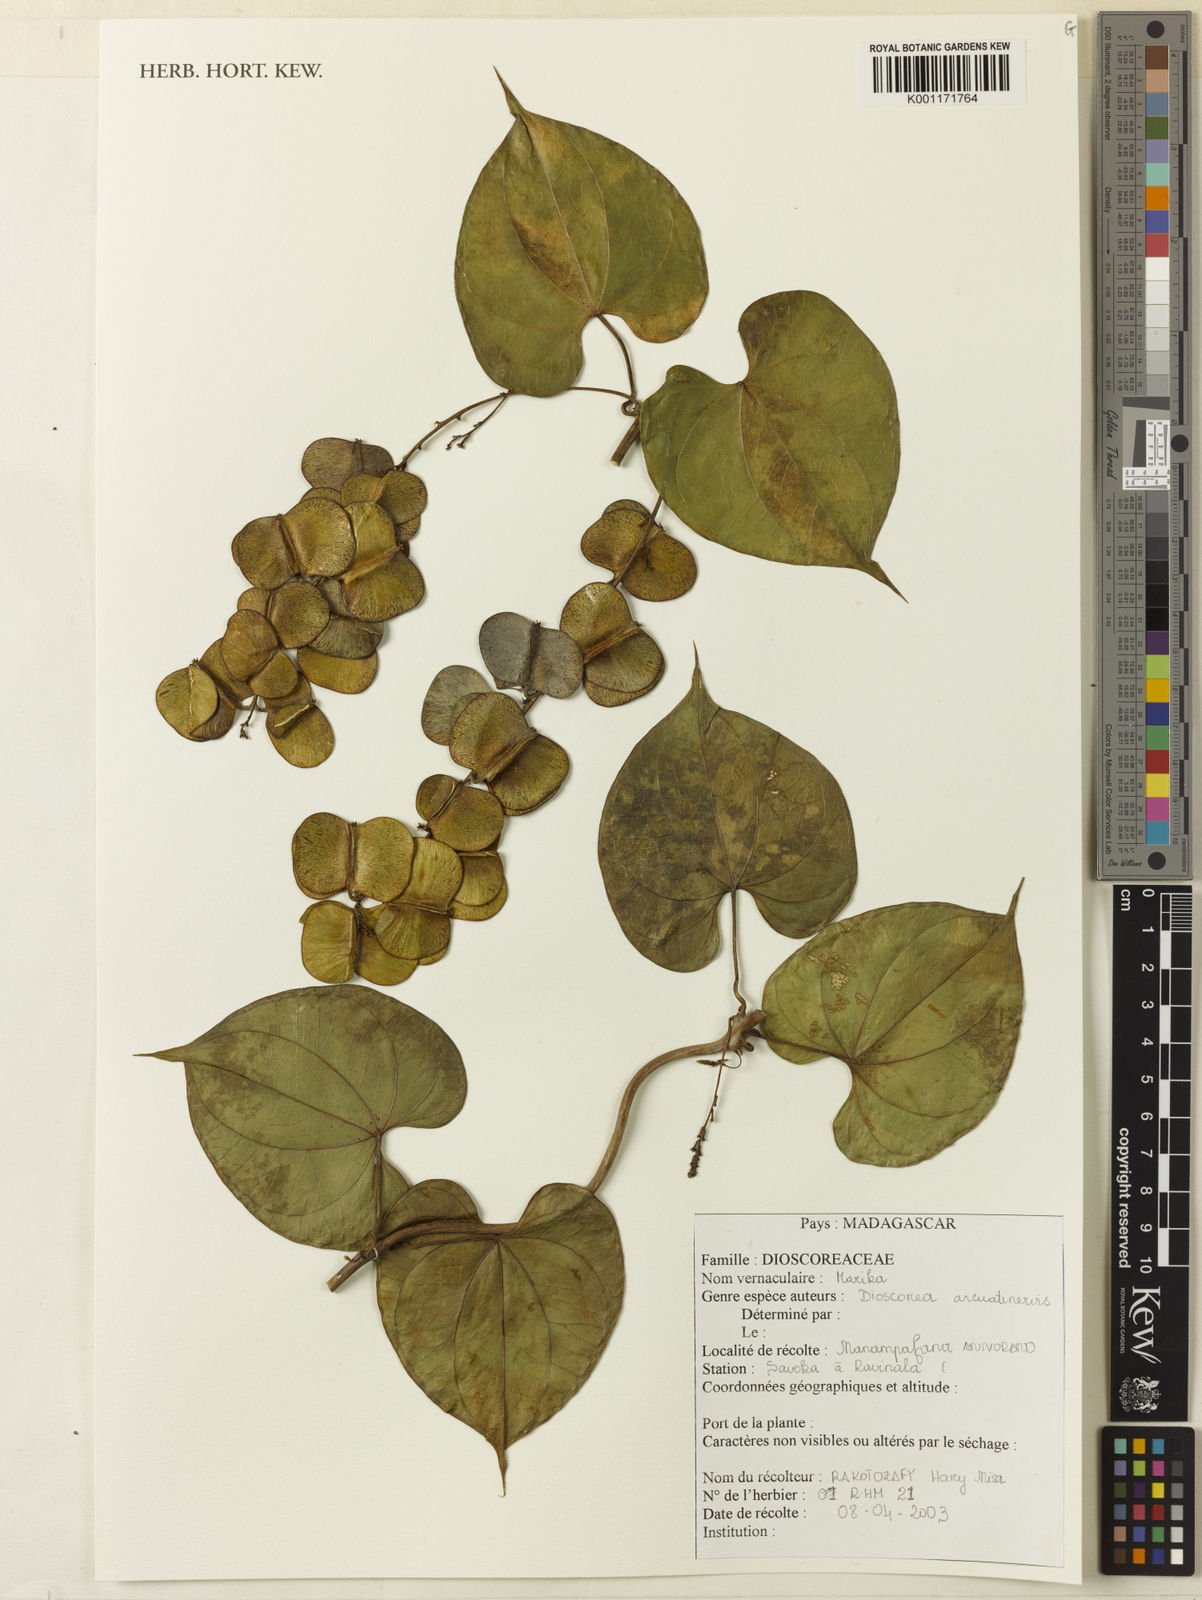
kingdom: Plantae
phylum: Tracheophyta
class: Liliopsida
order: Dioscoreales
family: Dioscoreaceae
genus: Dioscorea
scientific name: Dioscorea arcuatinervis
